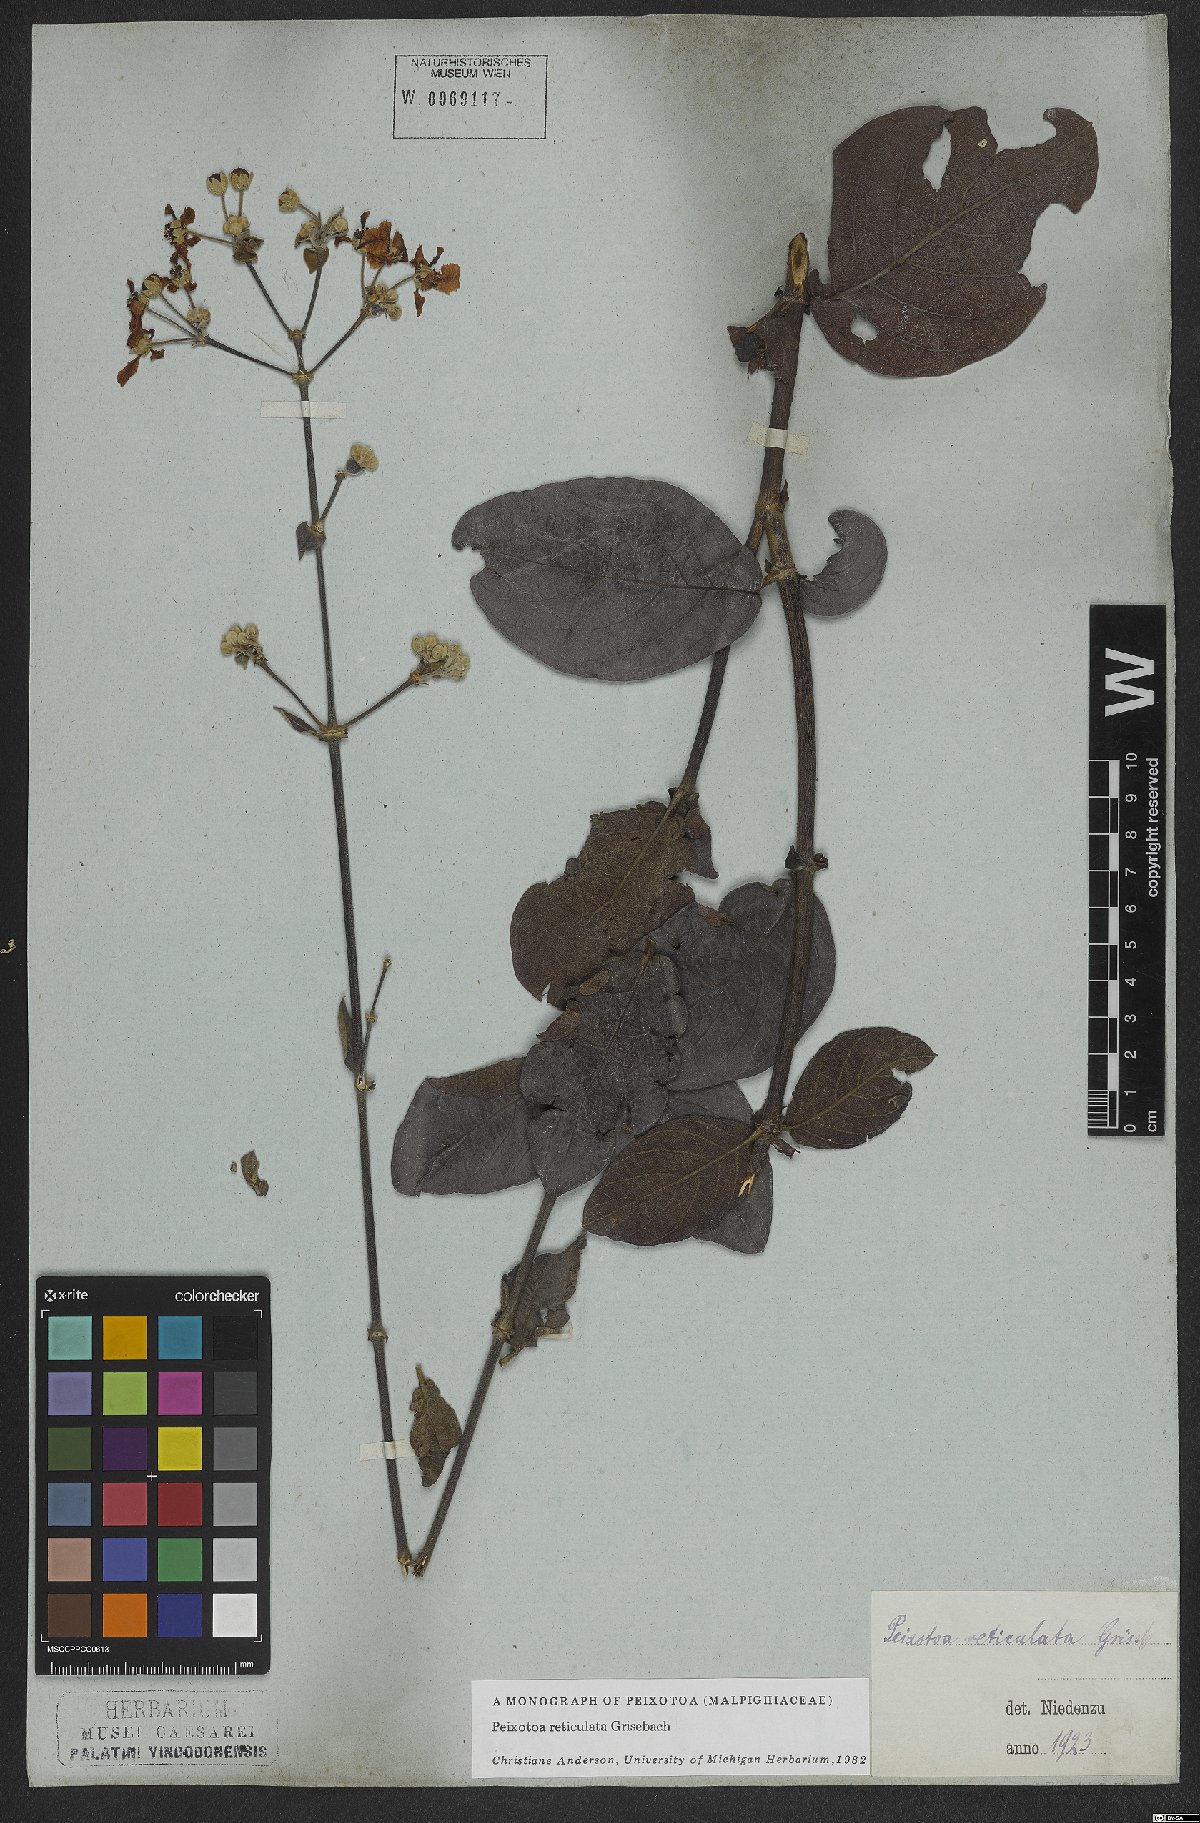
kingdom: Plantae
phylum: Tracheophyta
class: Magnoliopsida
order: Malpighiales
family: Malpighiaceae
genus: Peixotoa
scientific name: Peixotoa reticulata
